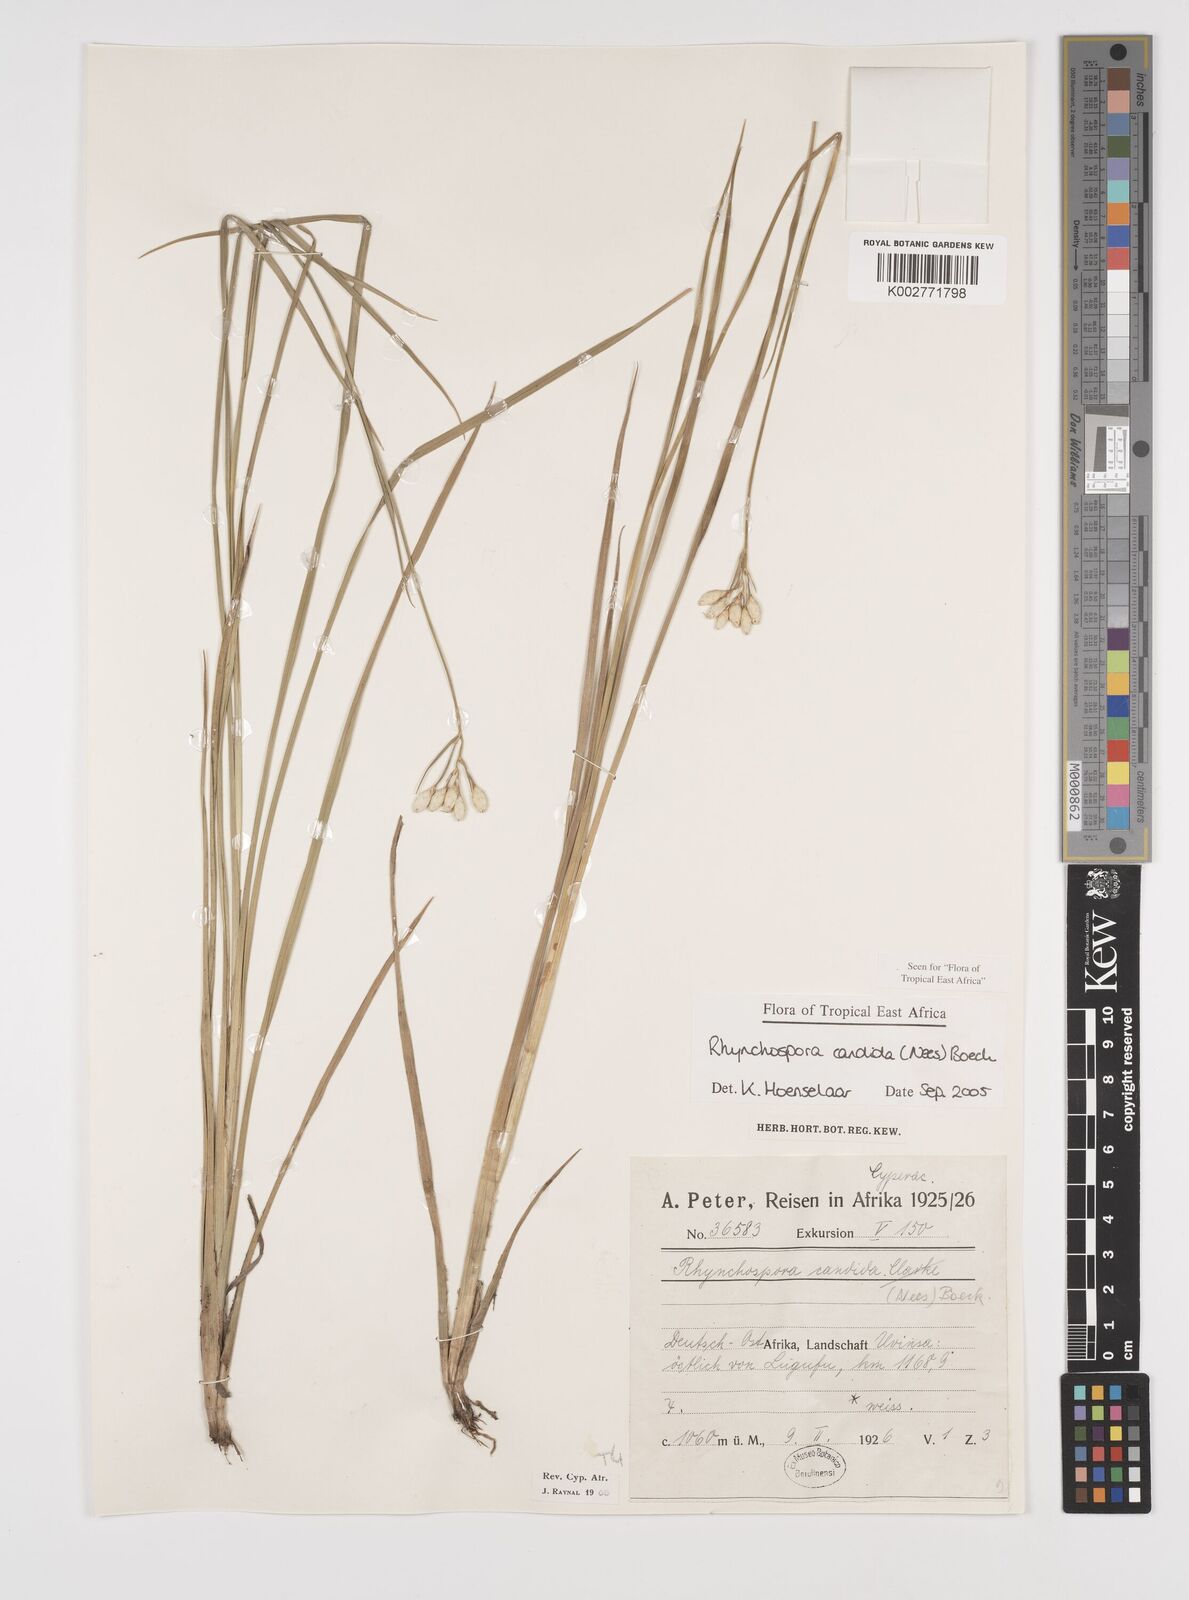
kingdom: Plantae
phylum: Tracheophyta
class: Liliopsida
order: Poales
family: Cyperaceae
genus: Rhynchospora
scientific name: Rhynchospora candida
